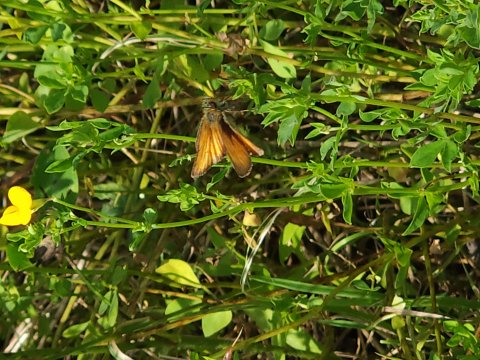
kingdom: Animalia
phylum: Arthropoda
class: Insecta
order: Lepidoptera
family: Hesperiidae
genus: Thymelicus
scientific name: Thymelicus lineola
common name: European Skipper
